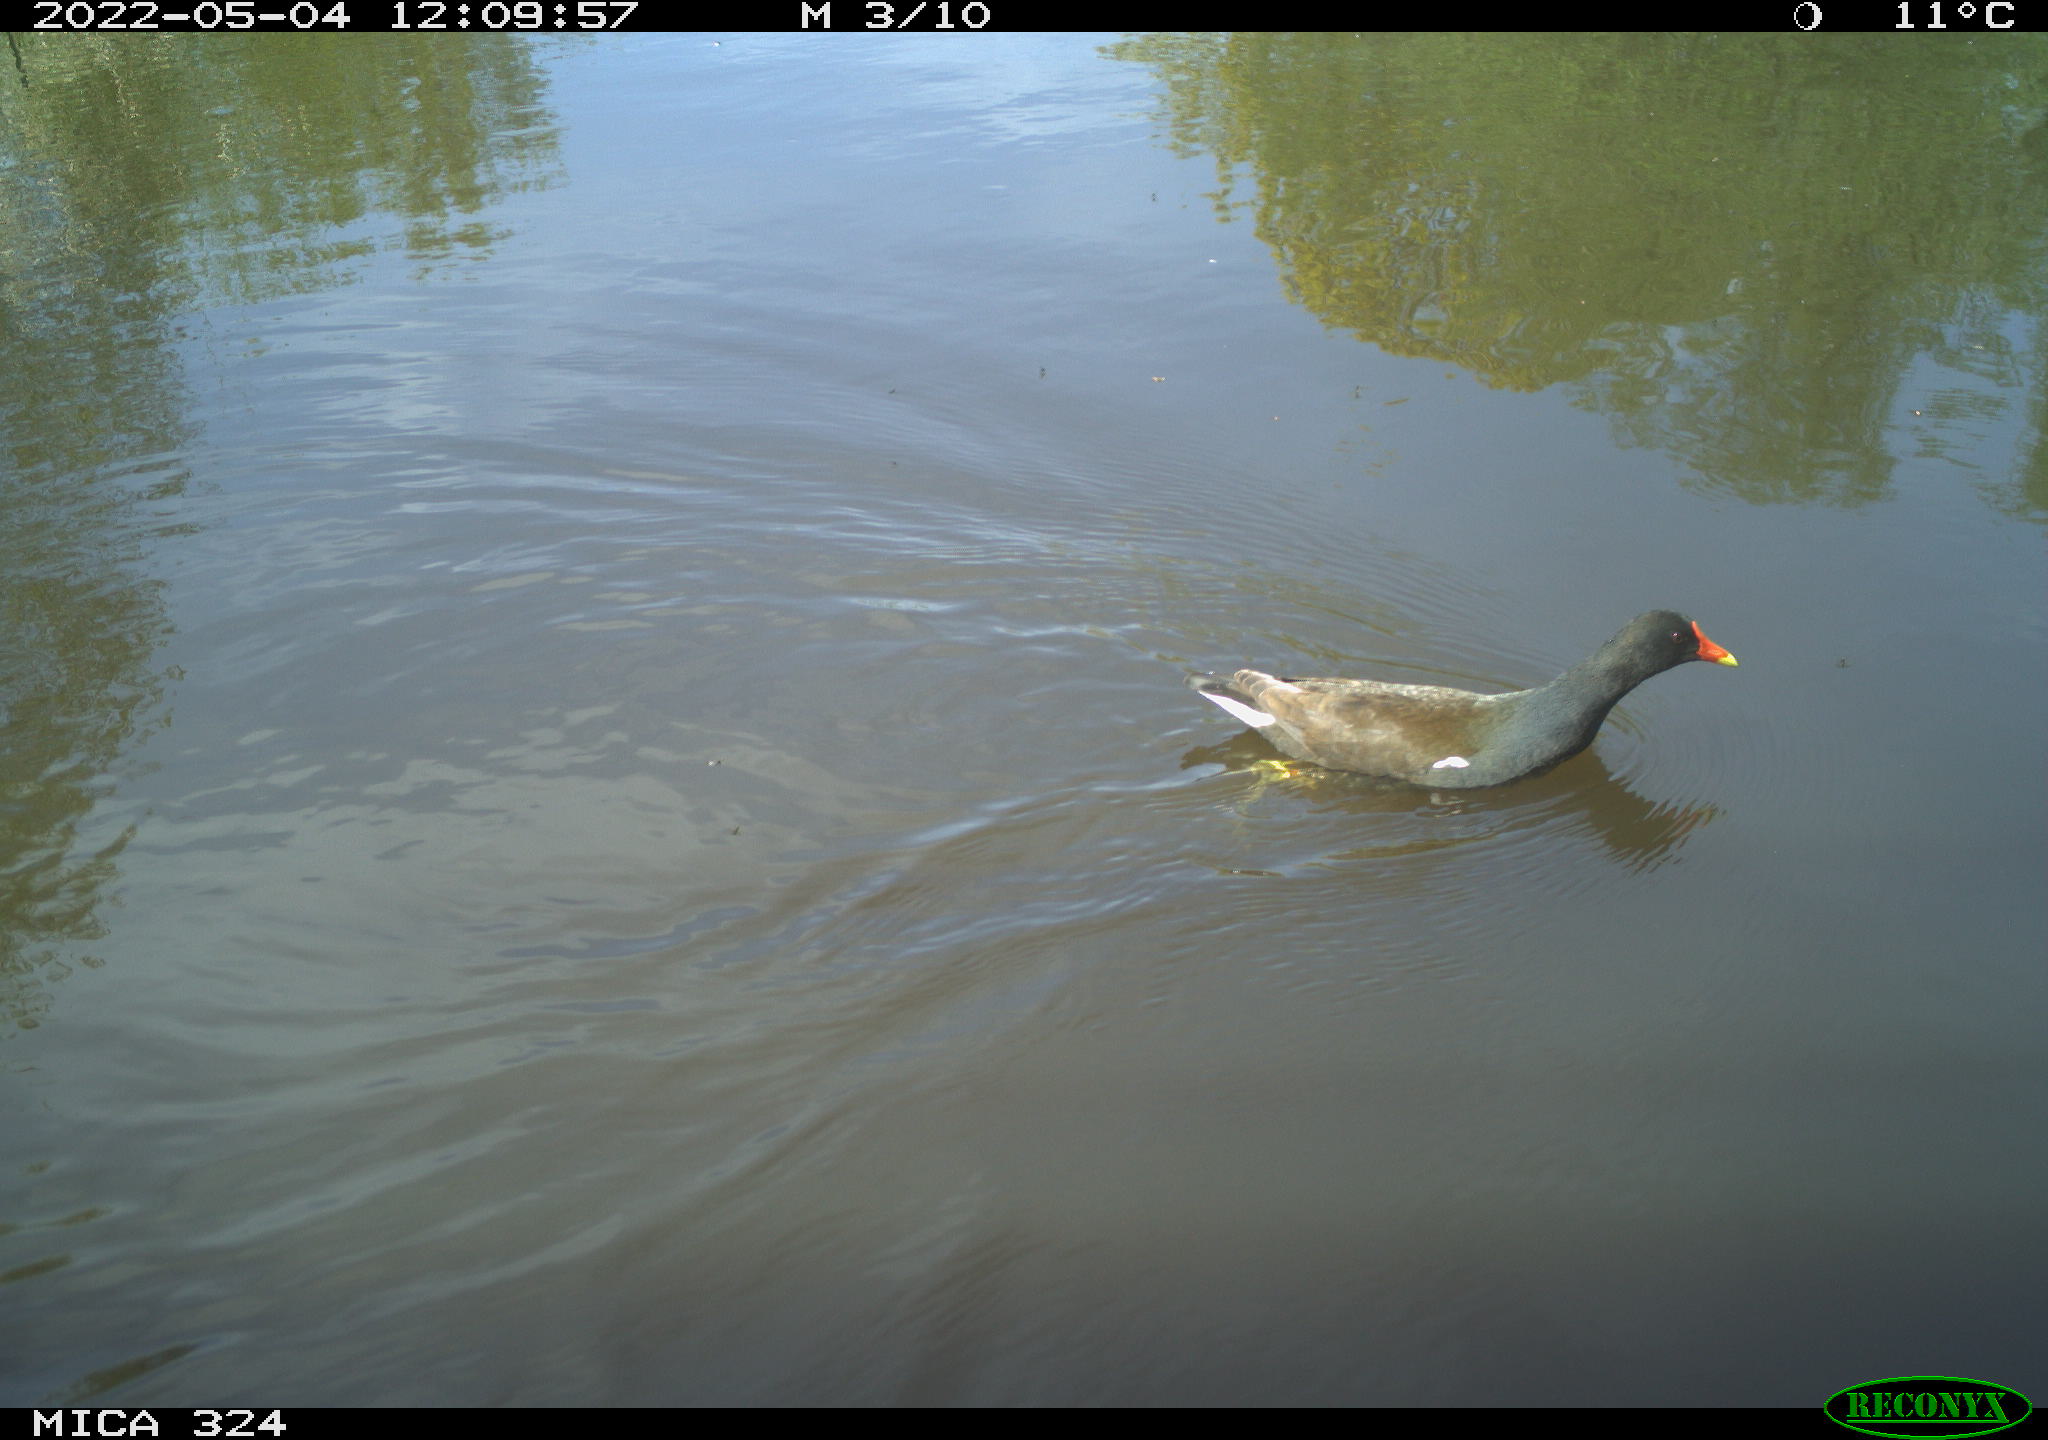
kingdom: Animalia
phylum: Chordata
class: Aves
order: Gruiformes
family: Rallidae
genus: Gallinula
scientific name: Gallinula chloropus
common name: Common moorhen
